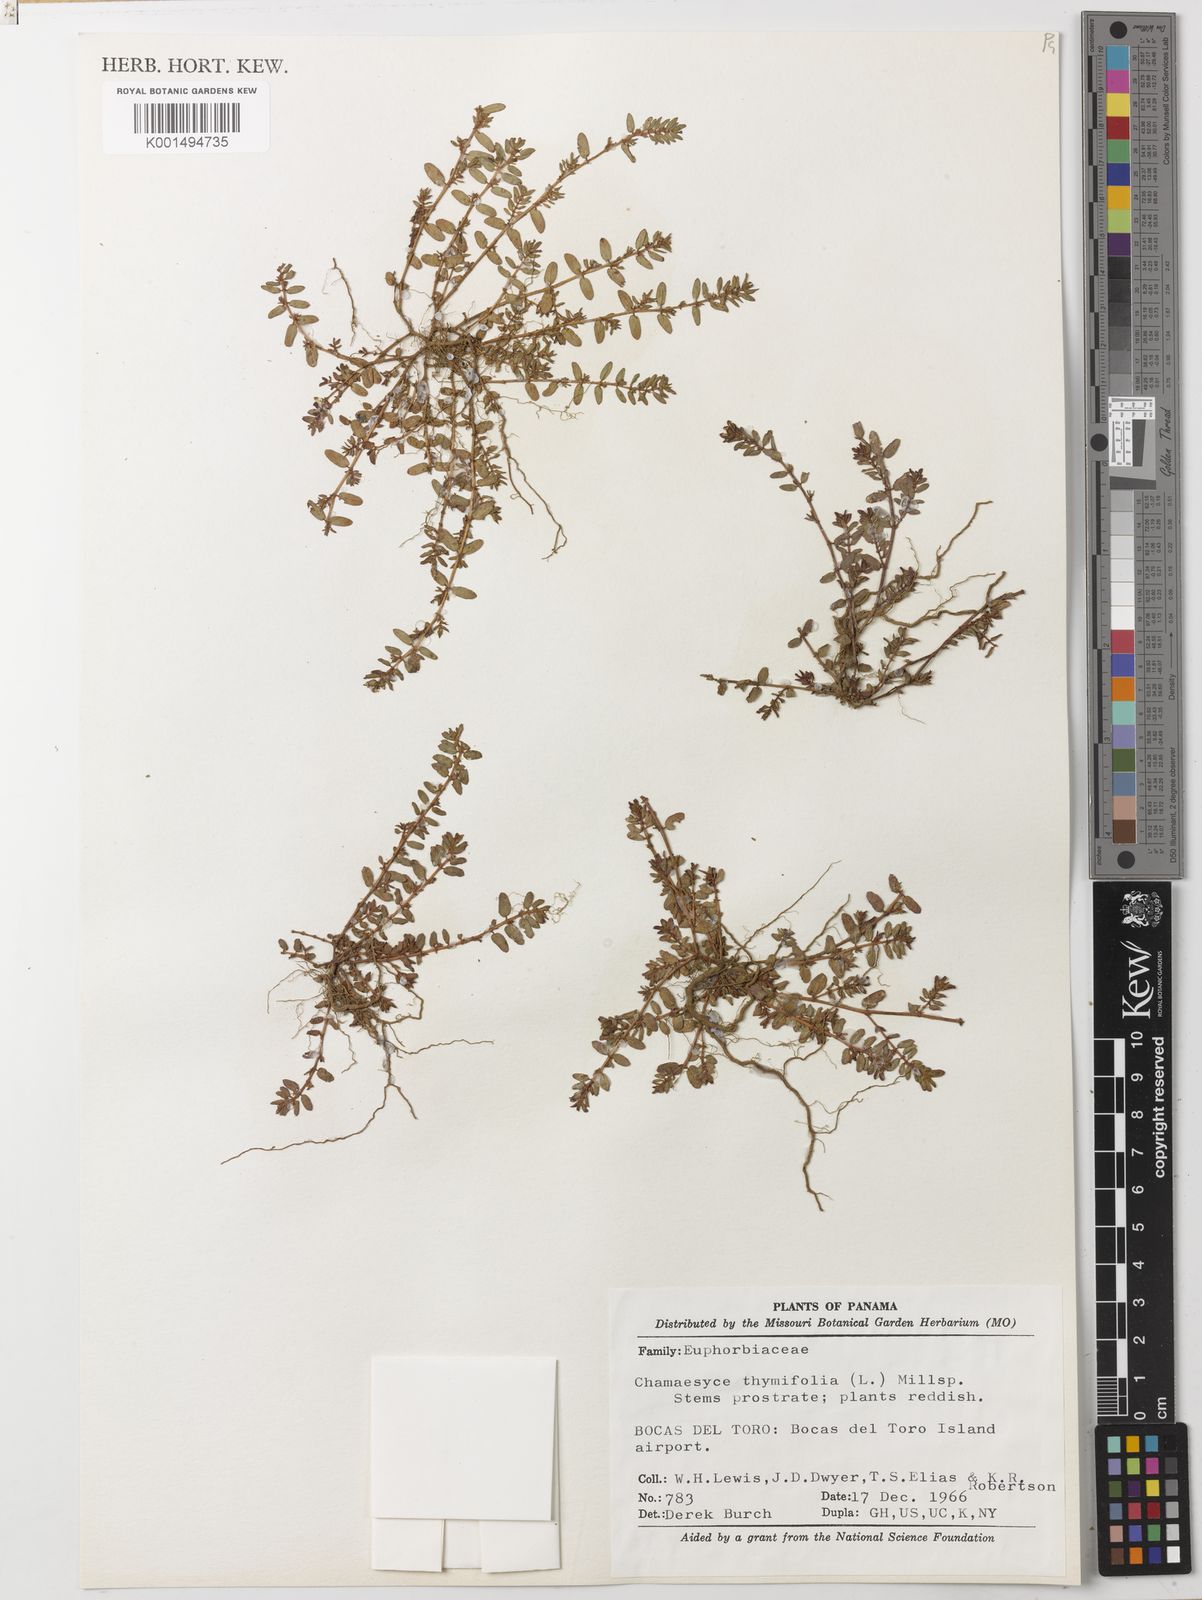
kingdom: Plantae
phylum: Tracheophyta
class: Magnoliopsida
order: Malpighiales
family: Euphorbiaceae
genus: Euphorbia
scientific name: Euphorbia thymifolia
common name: Gulf sandmat
